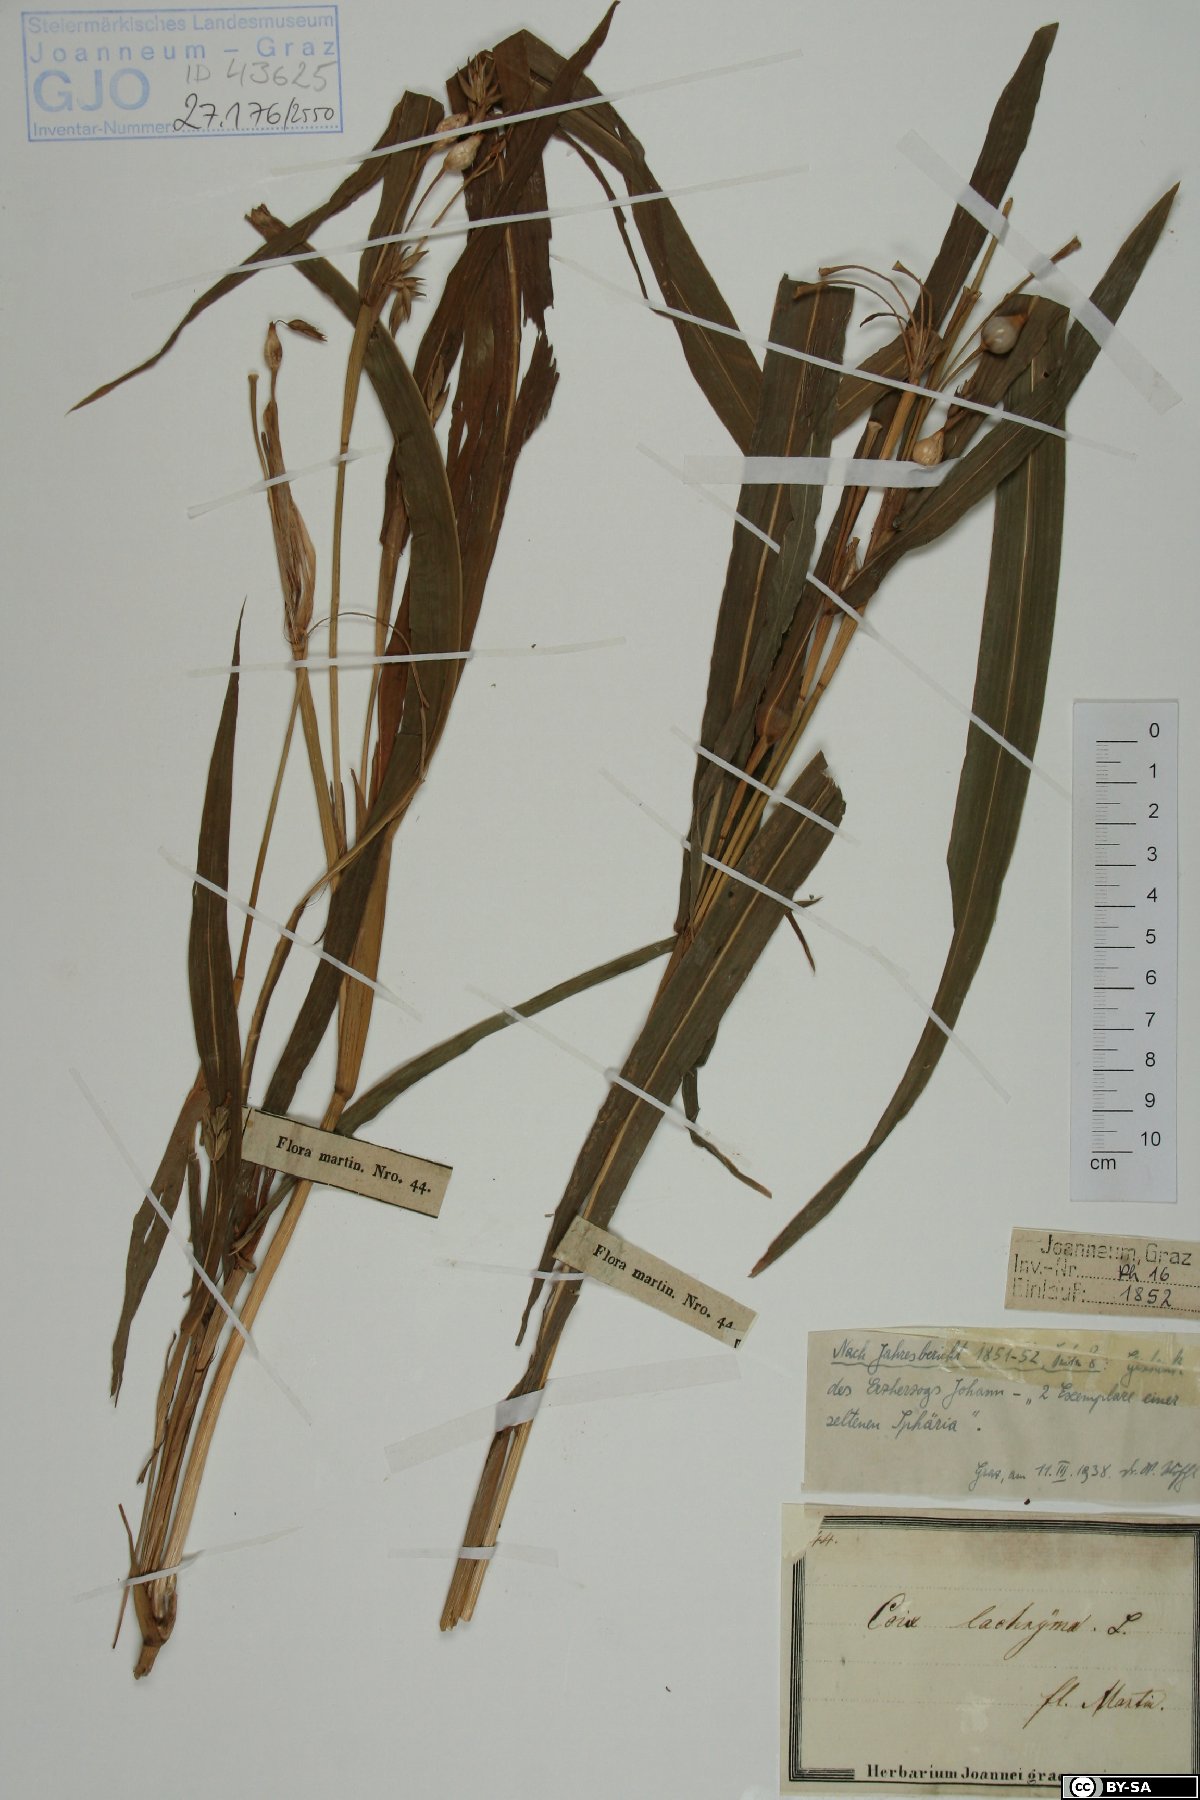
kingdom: Plantae
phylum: Tracheophyta
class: Liliopsida
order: Poales
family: Poaceae
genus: Coix
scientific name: Coix lacryma-jobi
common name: Job's tears
